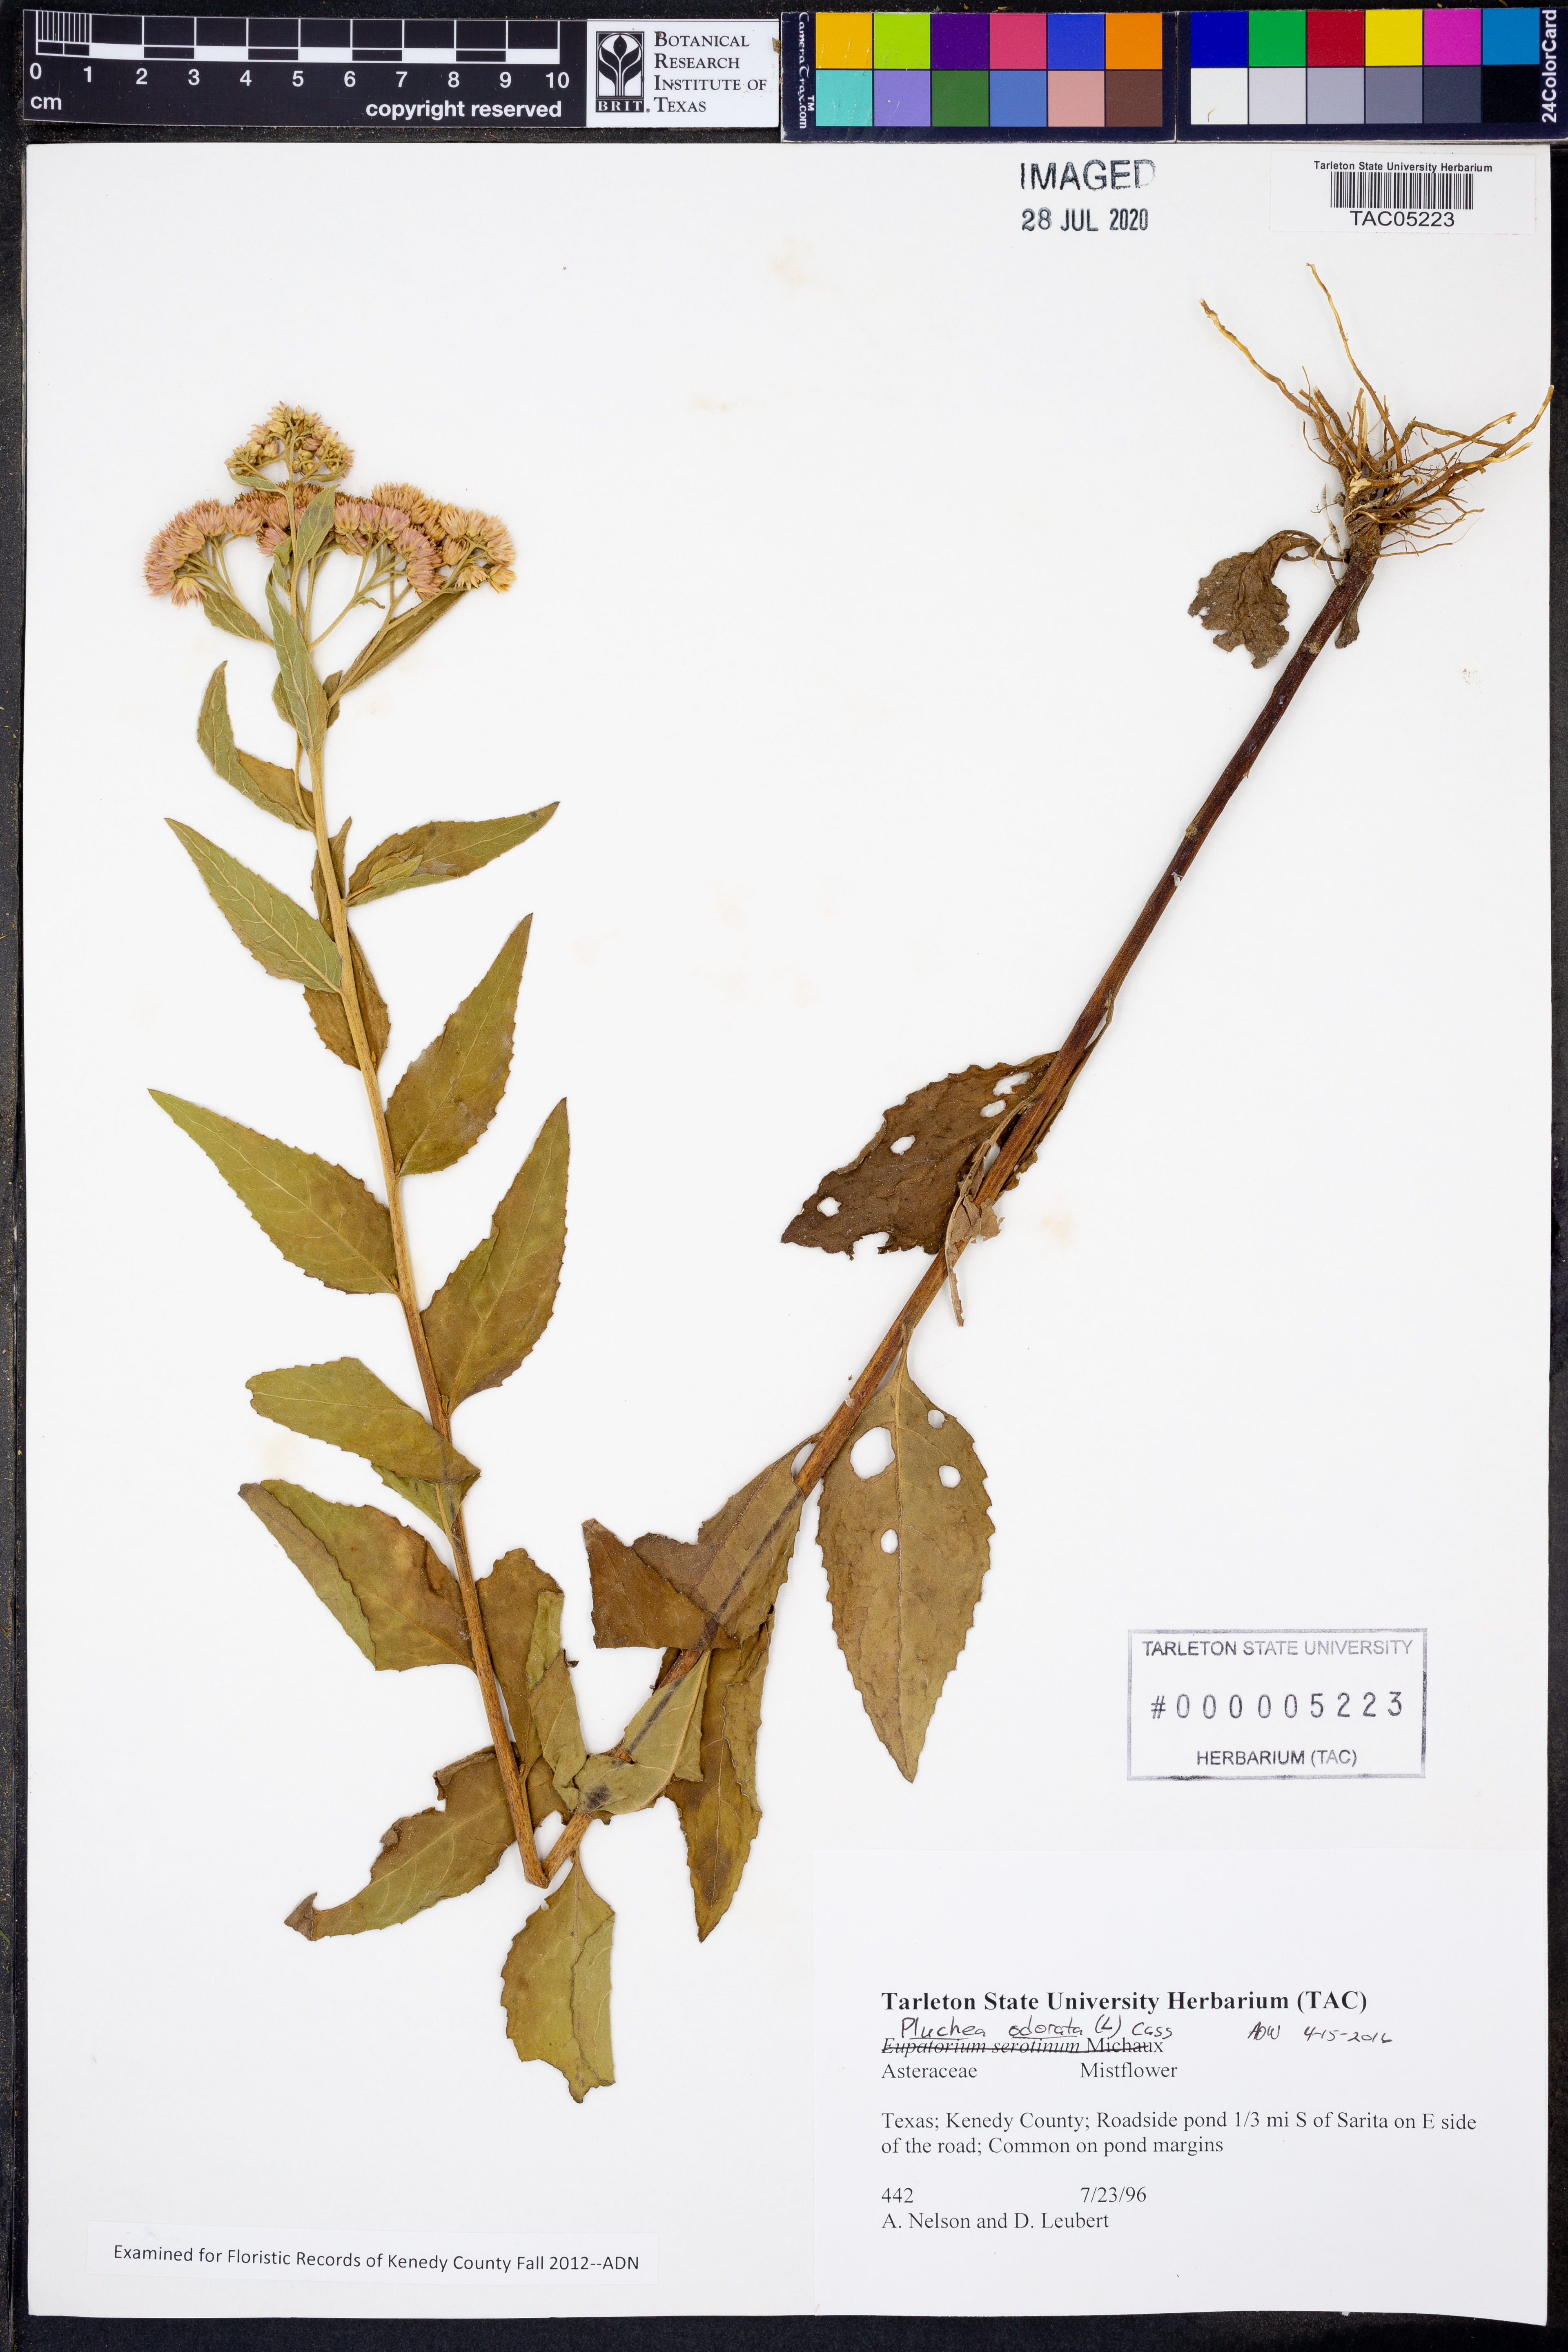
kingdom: Plantae
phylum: Tracheophyta
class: Magnoliopsida
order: Asterales
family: Asteraceae
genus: Pluchea
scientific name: Pluchea odorata
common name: Saltmarsh fleabane
